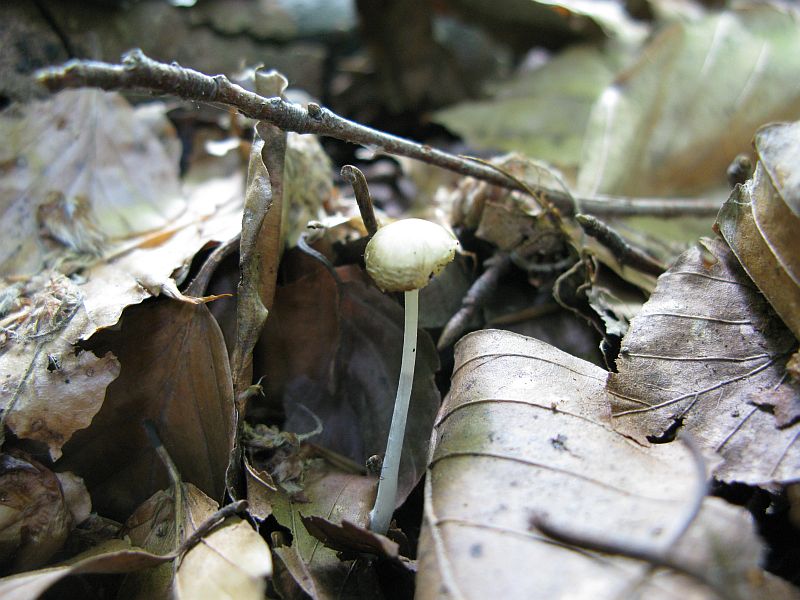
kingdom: Fungi
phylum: Basidiomycota
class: Agaricomycetes
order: Agaricales
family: Porotheleaceae
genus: Hydropodia
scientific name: Hydropodia subalpina
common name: vår-fnugfod
